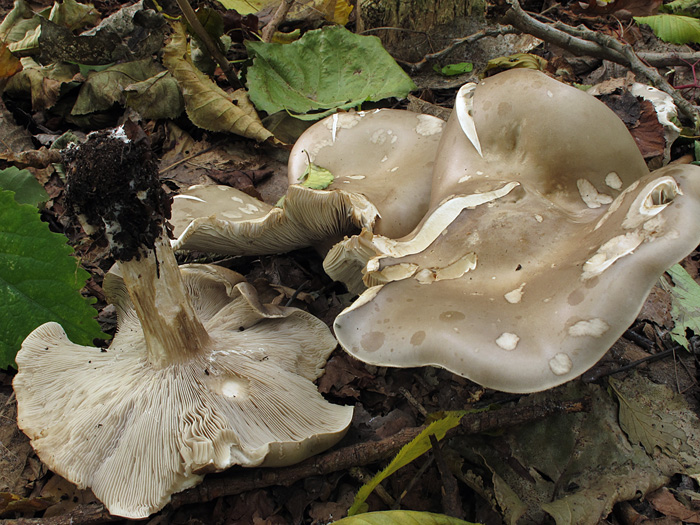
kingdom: Fungi
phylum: Basidiomycota
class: Agaricomycetes
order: Agaricales
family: Tricholomataceae
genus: Melanoleuca
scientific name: Melanoleuca grammopodia
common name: stribestokket munkehat
